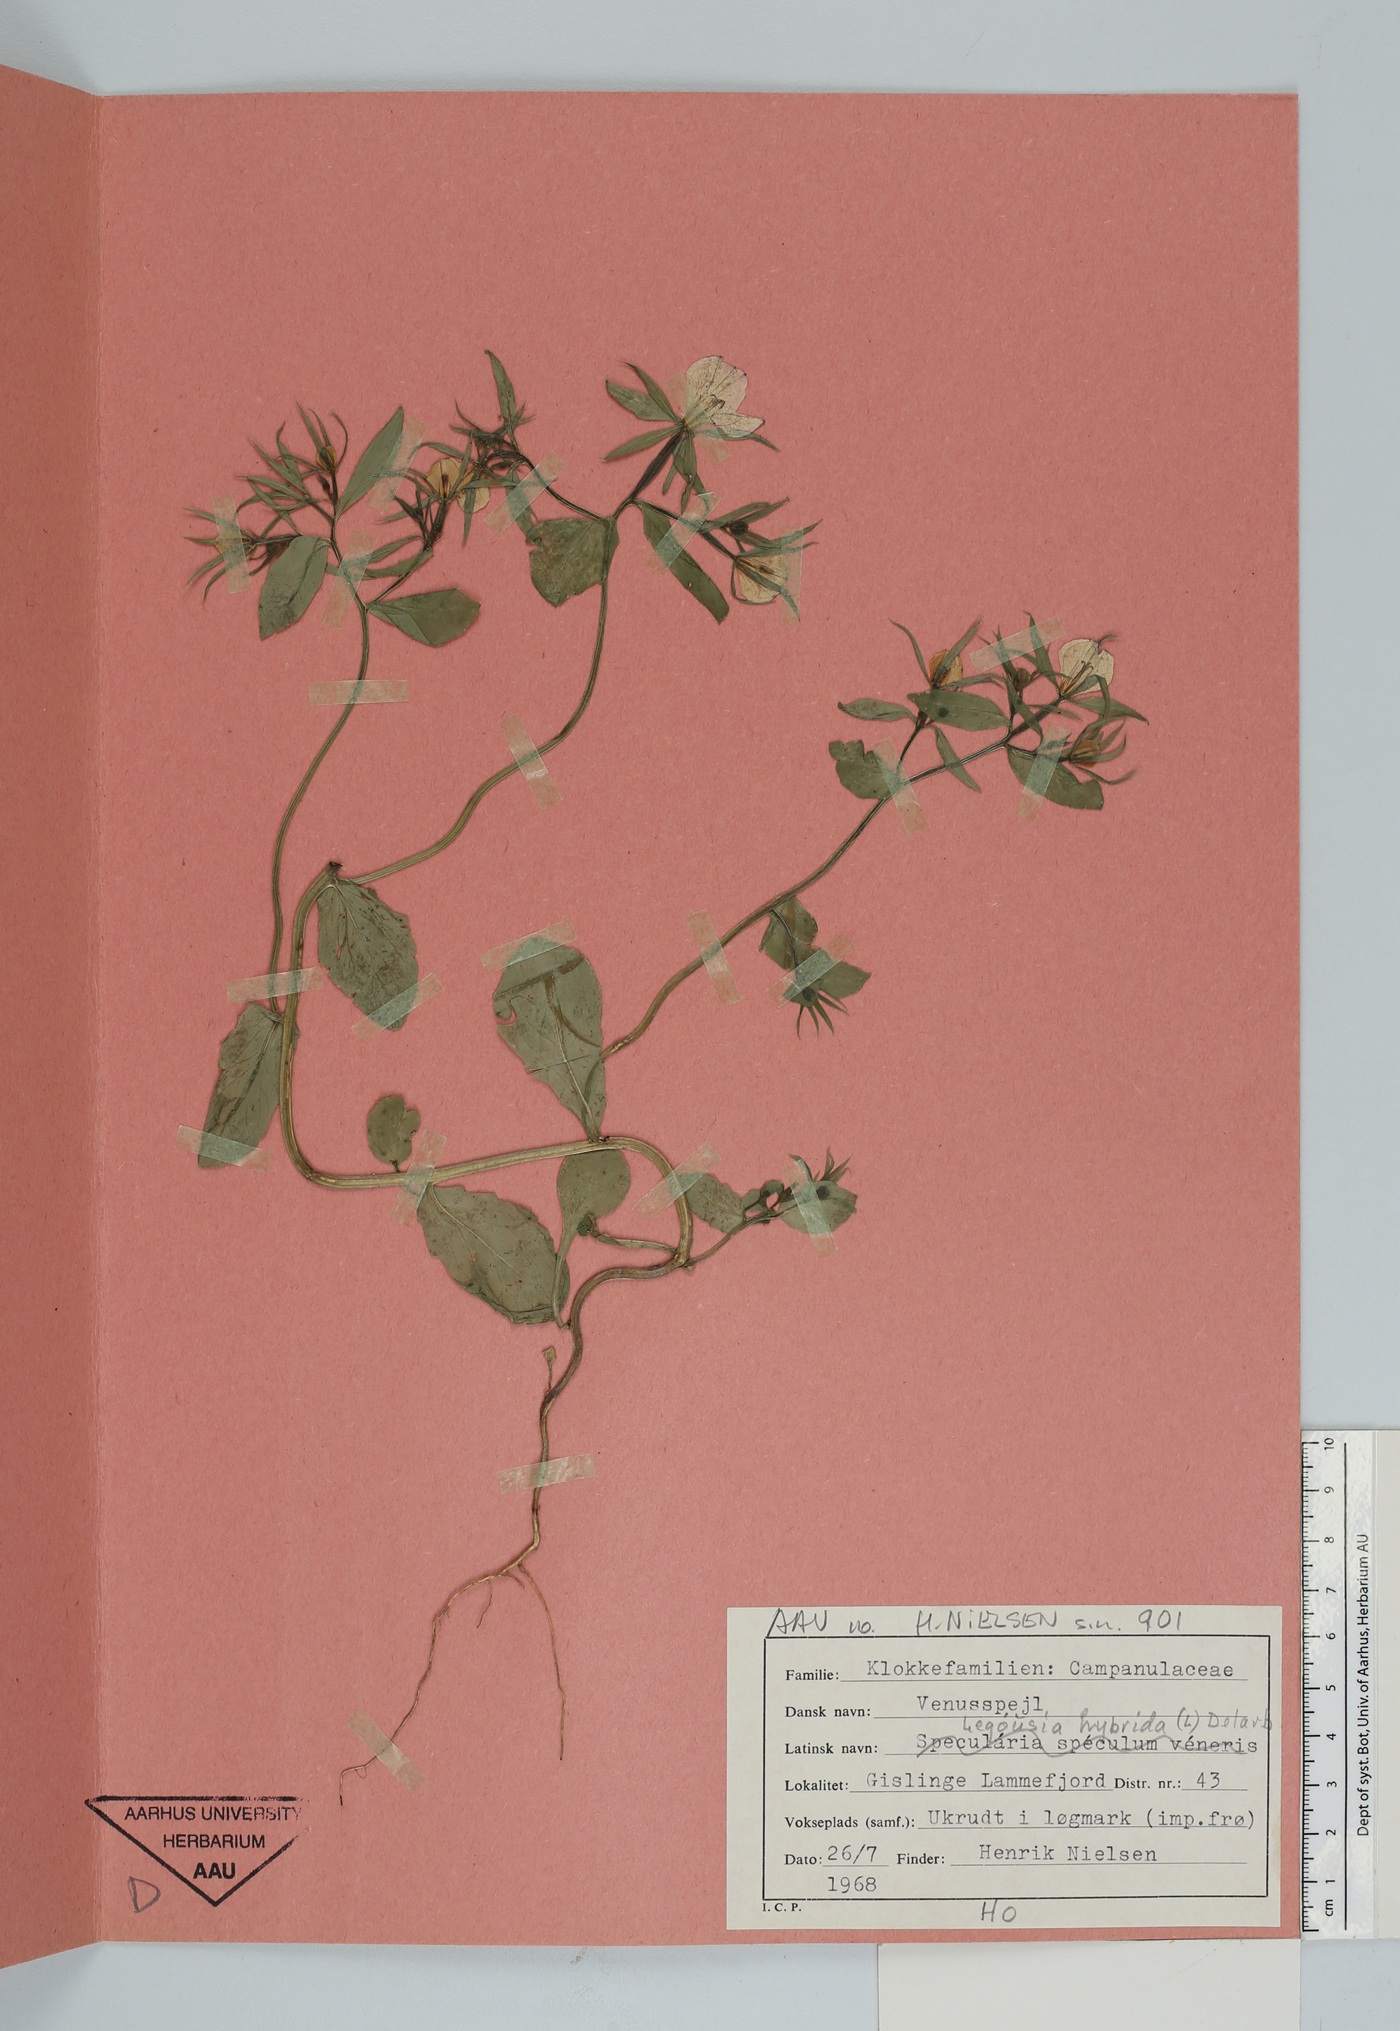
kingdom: Plantae
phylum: Tracheophyta
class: Magnoliopsida
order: Asterales
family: Campanulaceae
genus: Legousia
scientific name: Legousia hybrida
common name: Venus's-looking-glass
